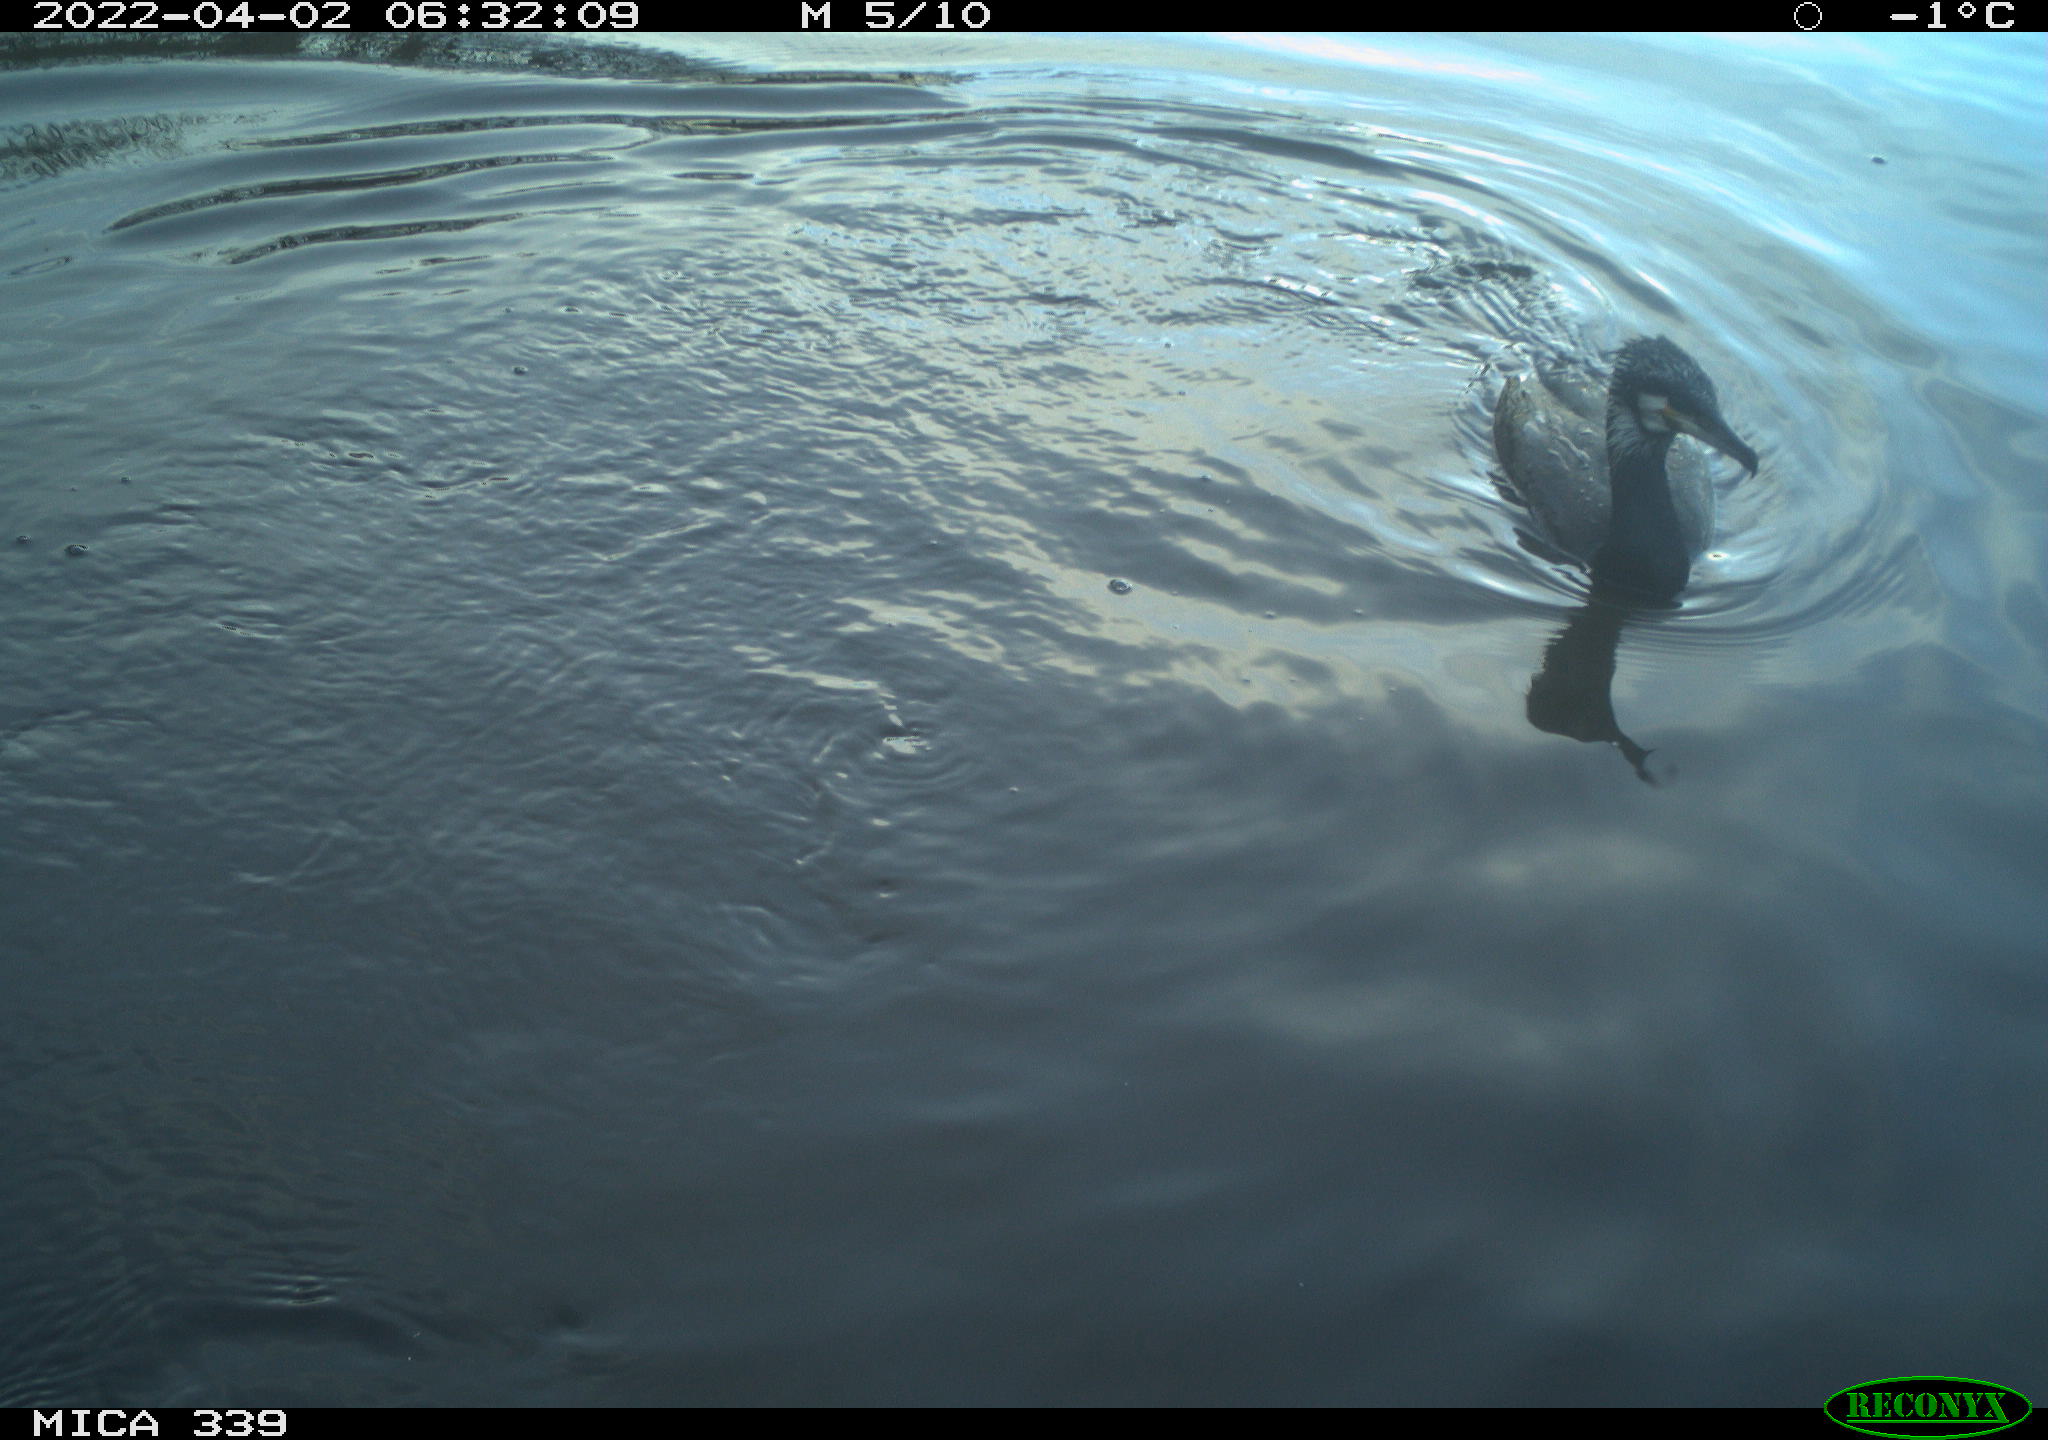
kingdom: Animalia
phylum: Chordata
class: Aves
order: Suliformes
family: Phalacrocoracidae
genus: Phalacrocorax
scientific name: Phalacrocorax carbo
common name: Great cormorant
